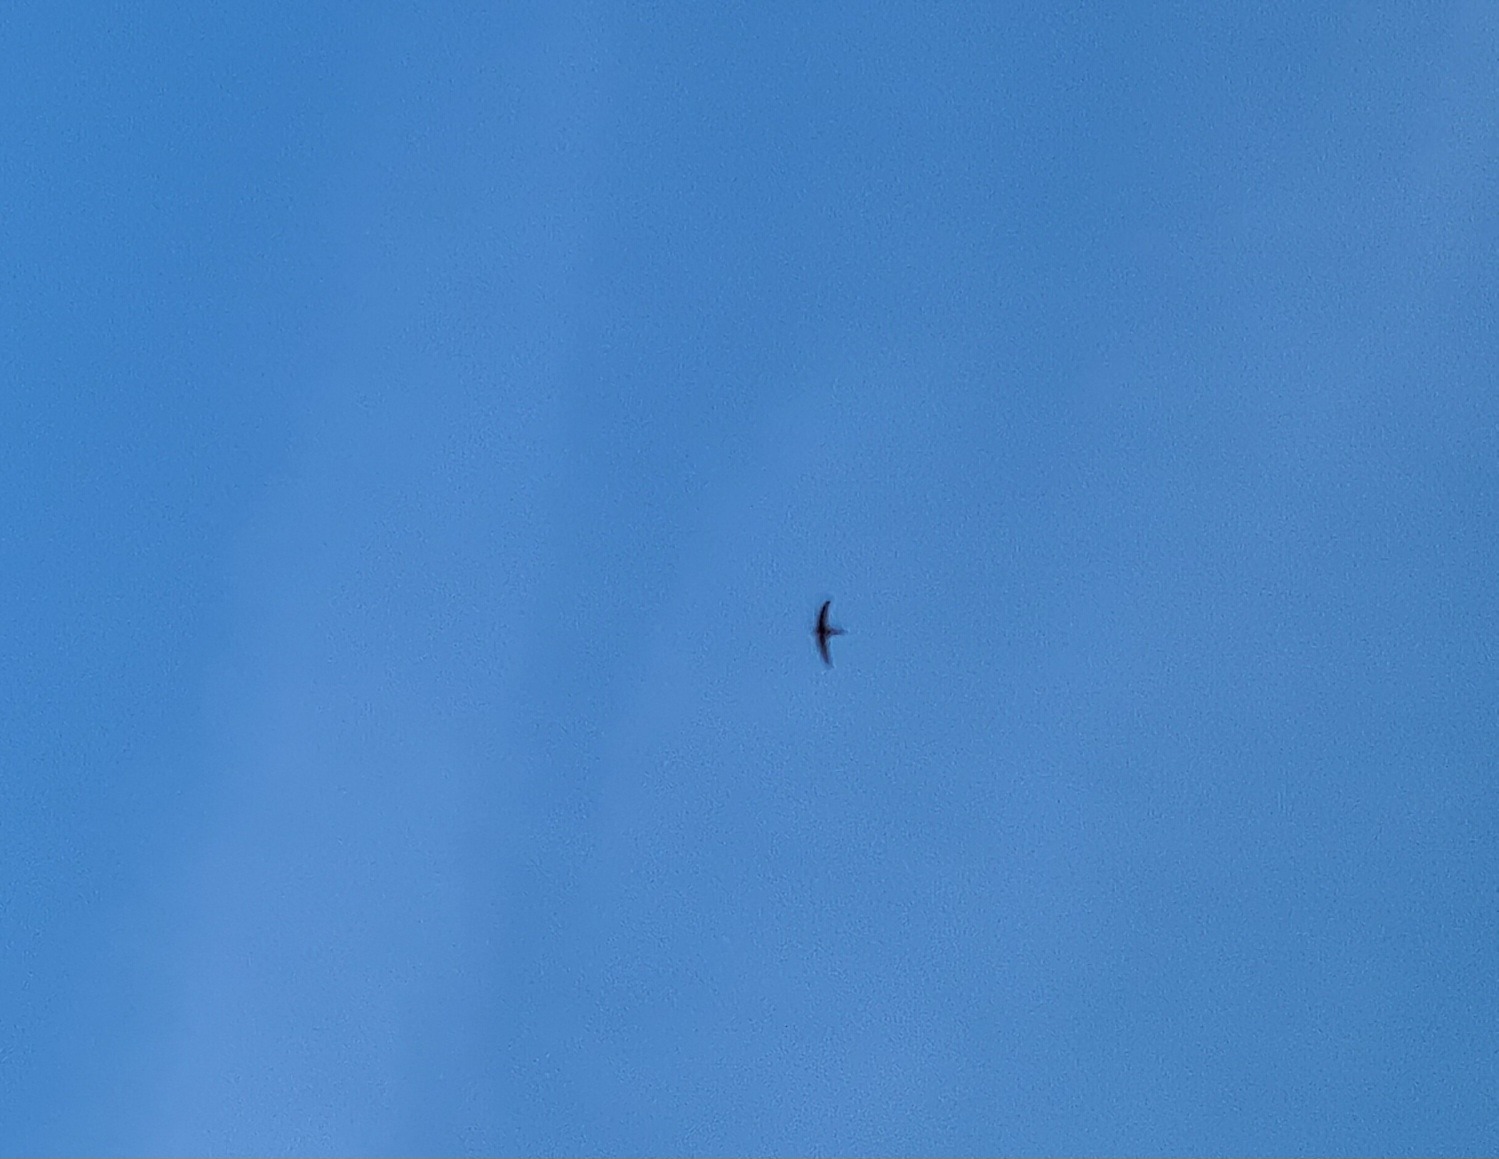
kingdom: Animalia
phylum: Chordata
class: Aves
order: Apodiformes
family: Apodidae
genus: Apus
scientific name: Apus apus
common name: Mursejler
